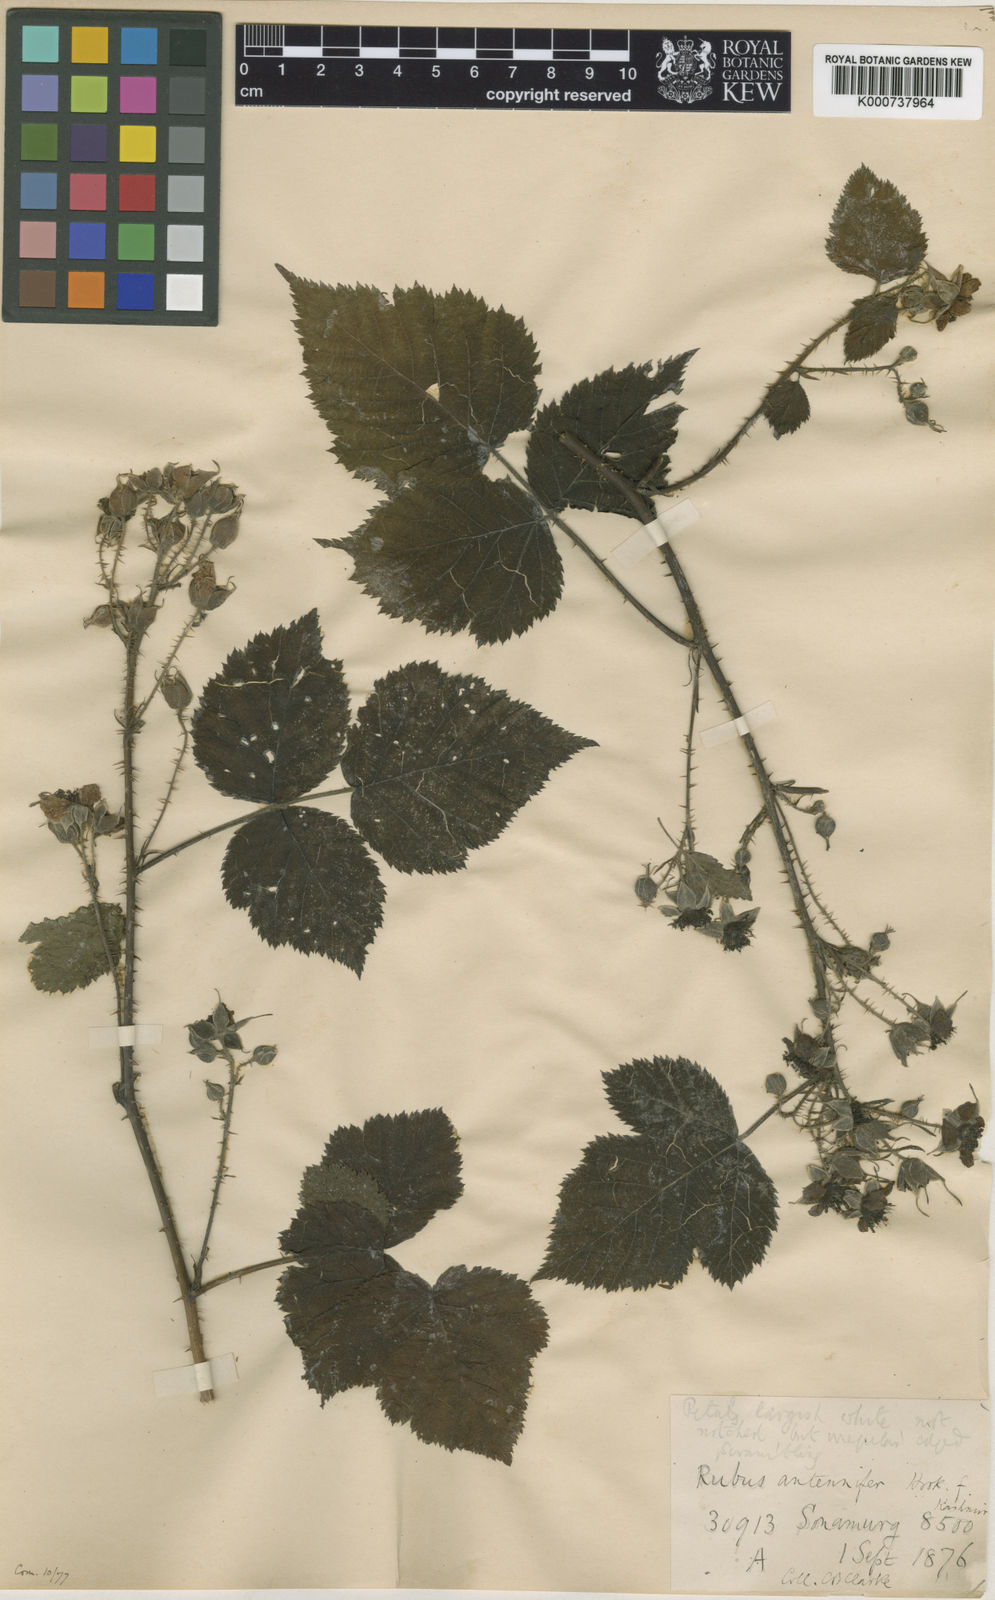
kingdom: Plantae
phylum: Tracheophyta
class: Magnoliopsida
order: Rosales
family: Rosaceae
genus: Rubus
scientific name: Rubus caesius
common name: Dewberry
